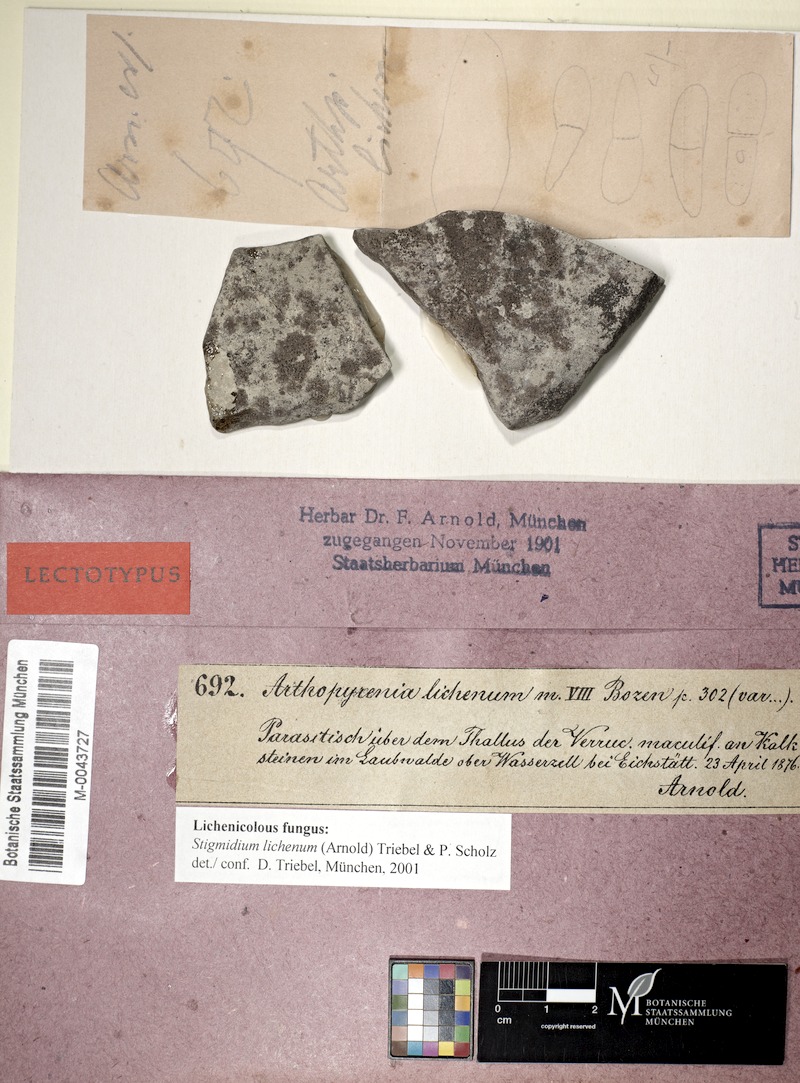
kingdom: Fungi
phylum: Ascomycota
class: Eurotiomycetes
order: Verrucariales
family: Verrucariaceae
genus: Verrucaria
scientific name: Verrucaria maculiformis
